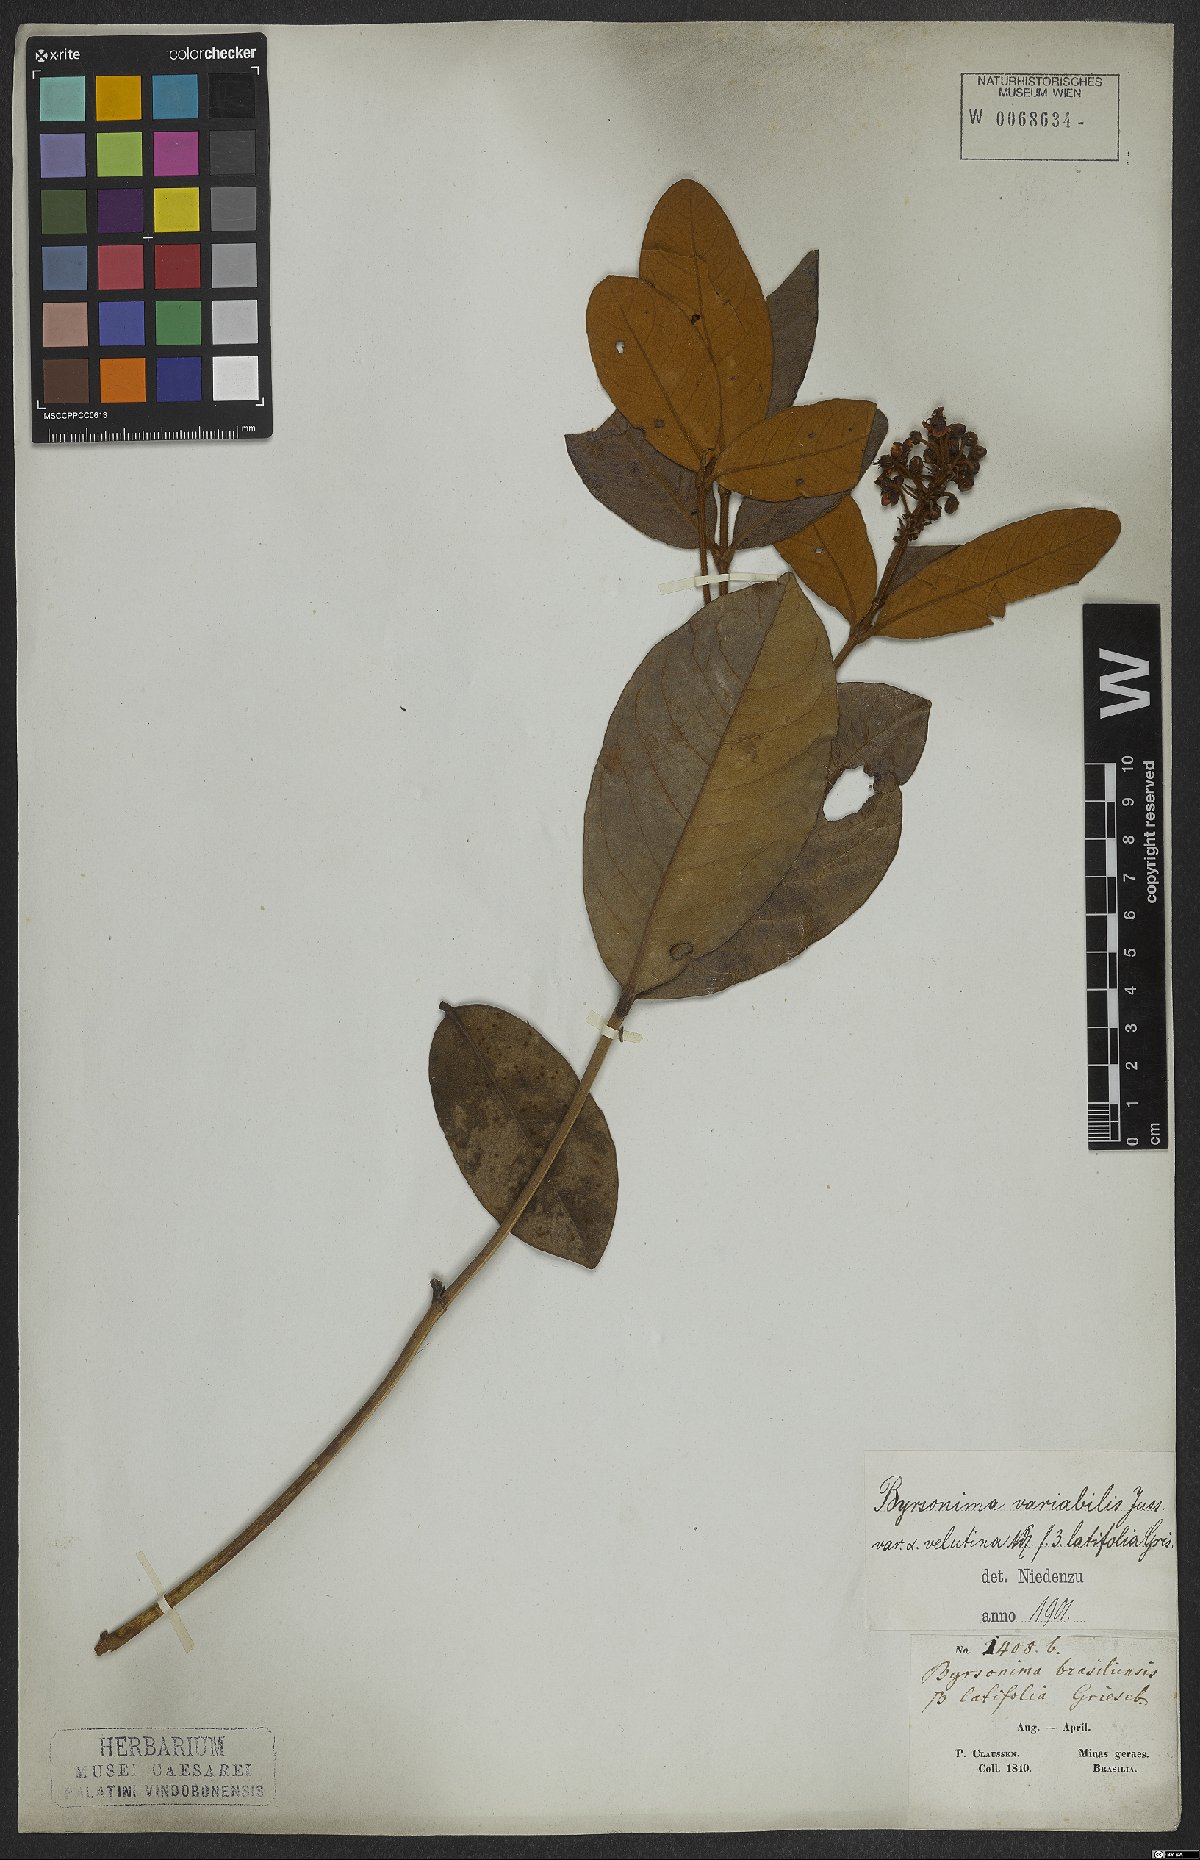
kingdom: Plantae
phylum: Tracheophyta
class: Magnoliopsida
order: Malpighiales
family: Malpighiaceae
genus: Byrsonima
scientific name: Byrsonima variabilis
